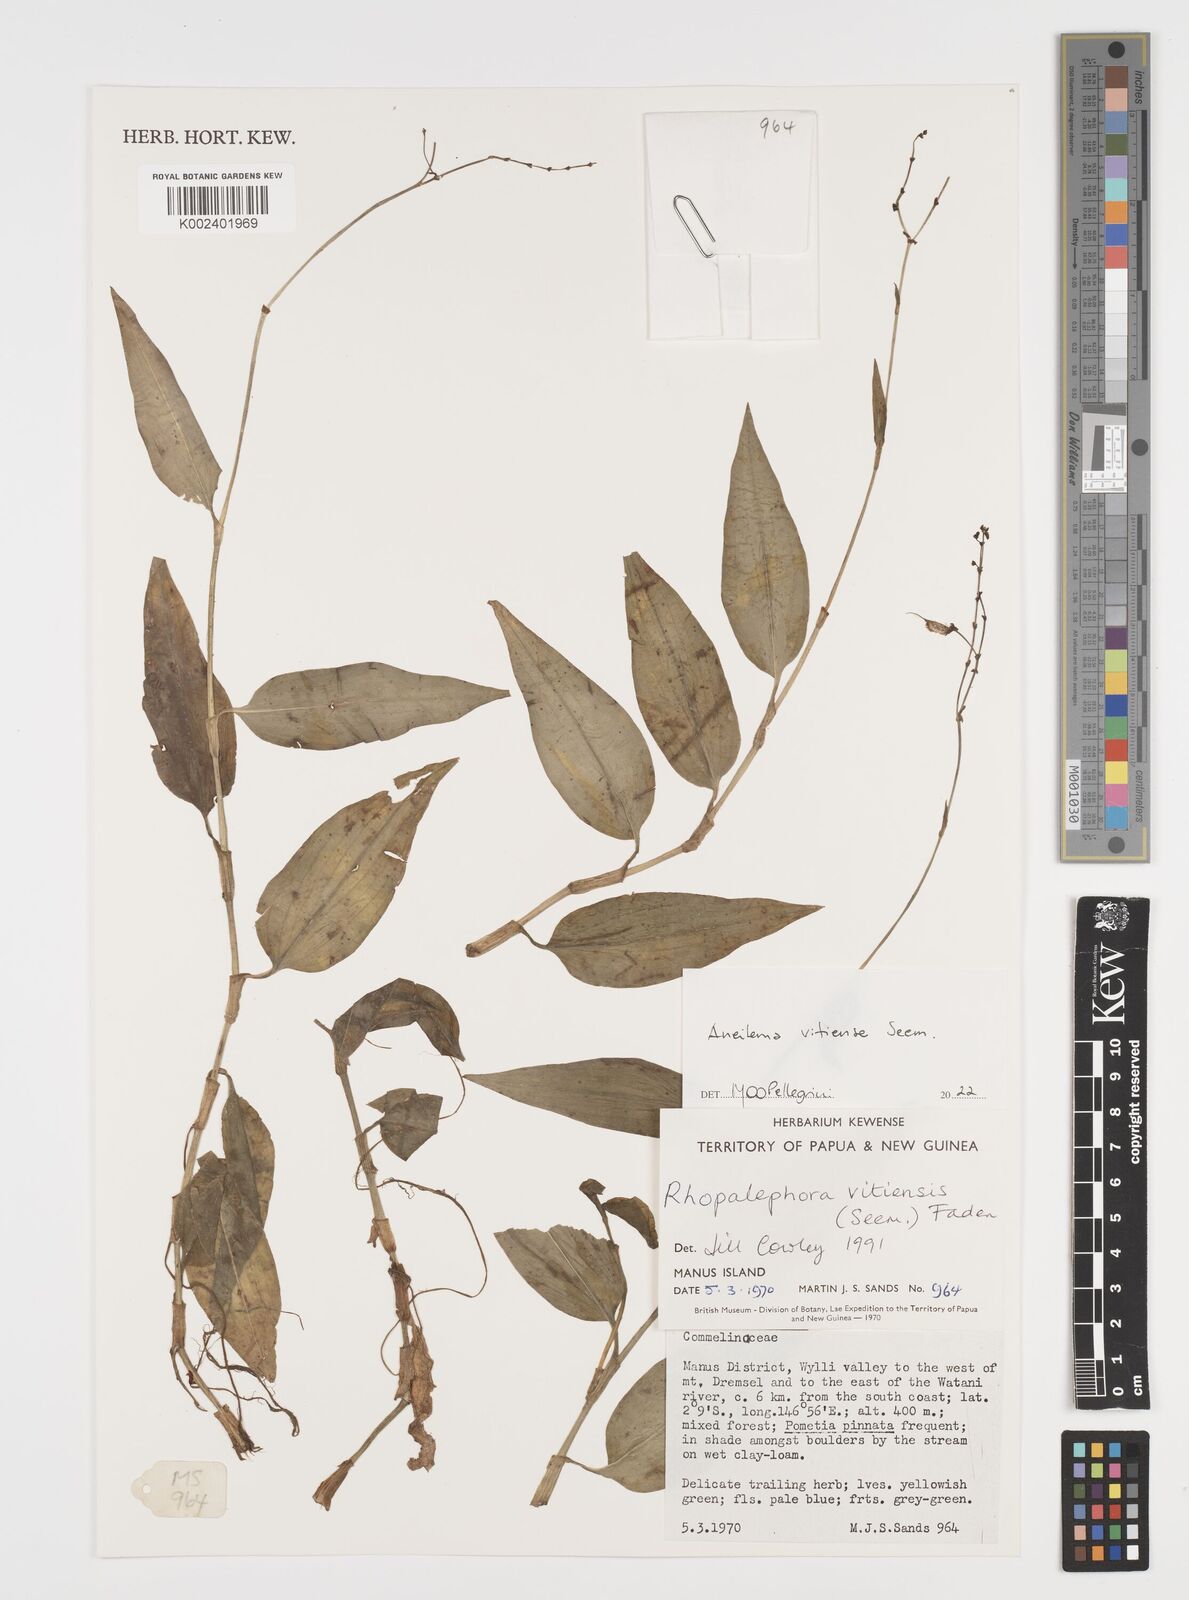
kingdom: Plantae
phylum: Tracheophyta
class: Liliopsida
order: Commelinales
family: Commelinaceae
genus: Rhopalephora
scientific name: Rhopalephora vitiensis
